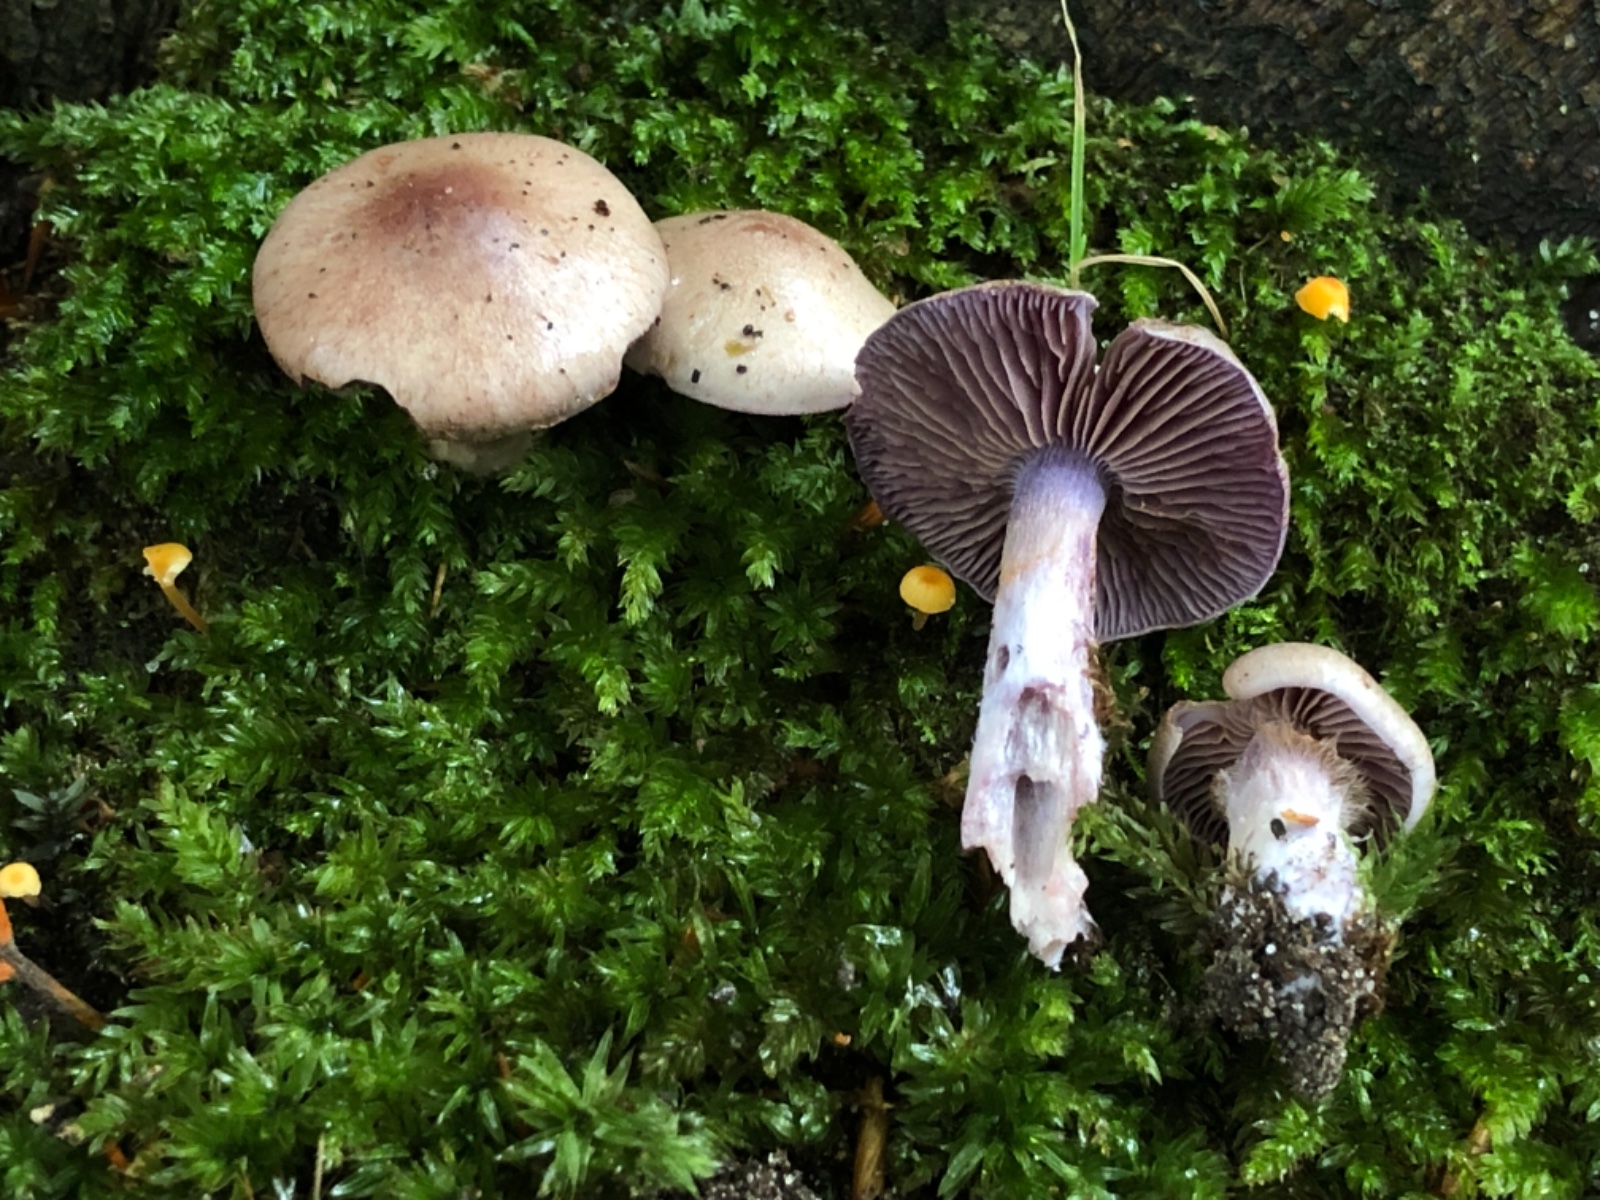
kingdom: Fungi
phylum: Basidiomycota
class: Agaricomycetes
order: Agaricales
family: Cortinariaceae
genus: Thaxterogaster
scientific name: Thaxterogaster subporphyropus
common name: ametyst-slørhat
